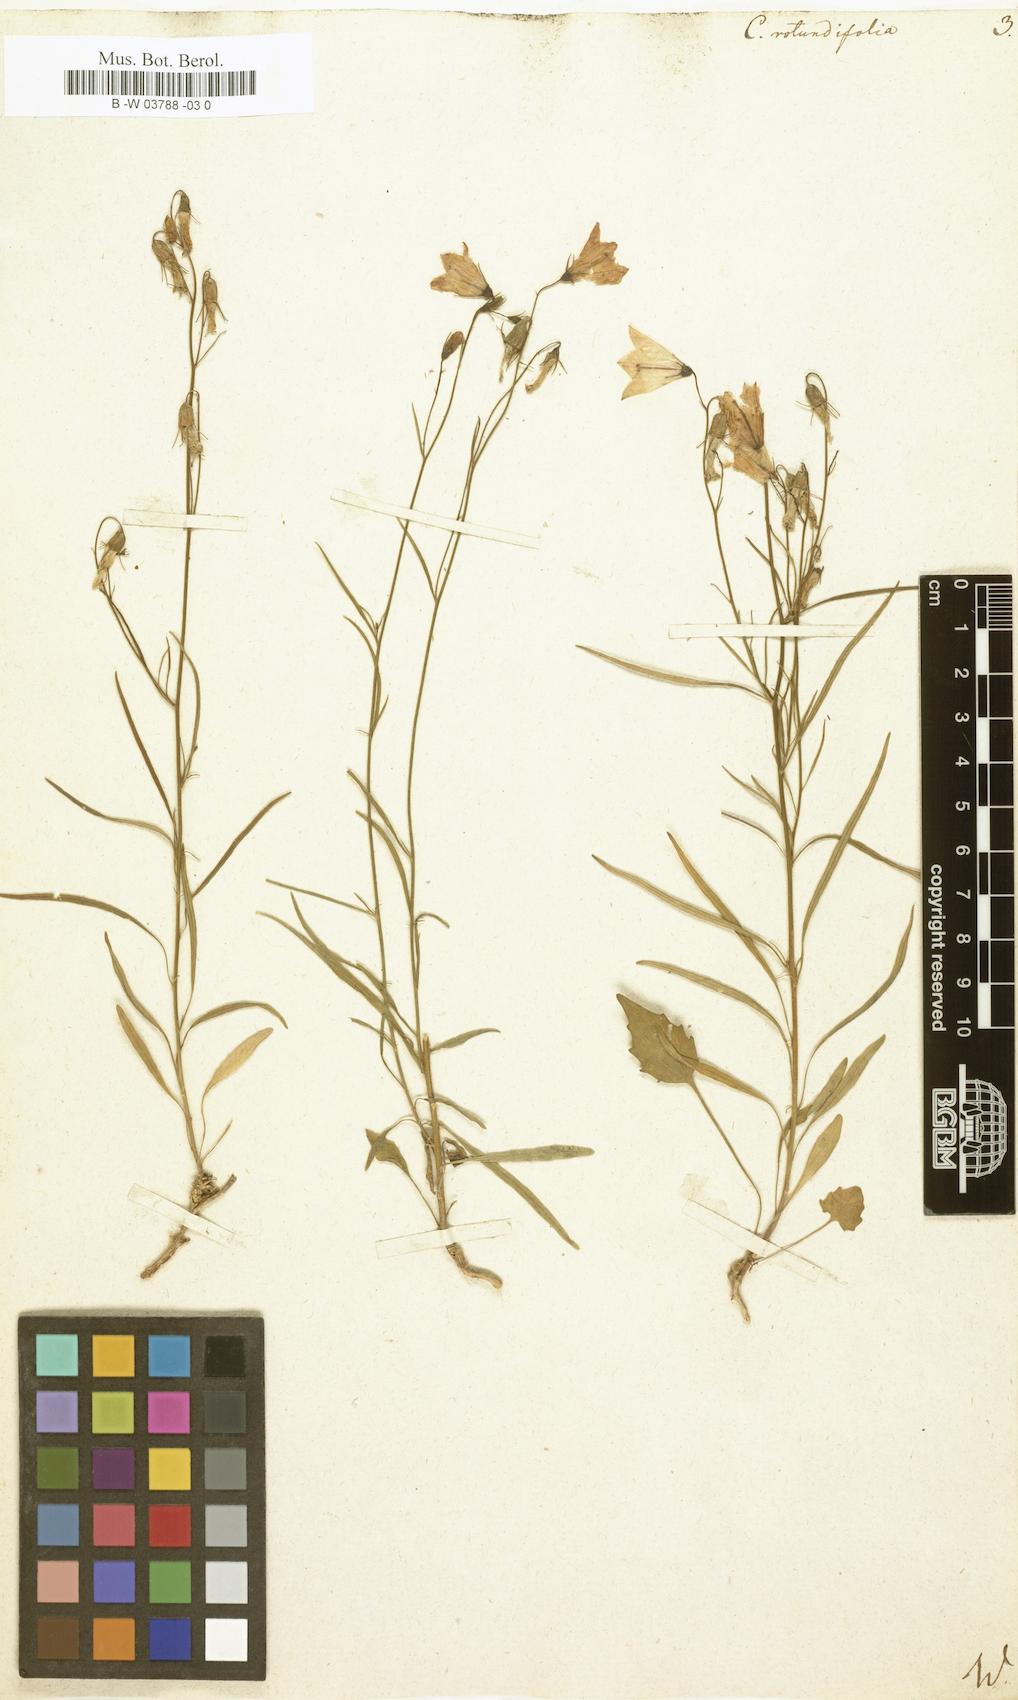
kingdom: Plantae
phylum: Tracheophyta
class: Magnoliopsida
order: Asterales
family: Campanulaceae
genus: Campanula
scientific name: Campanula rotundifolia
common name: Harebell
